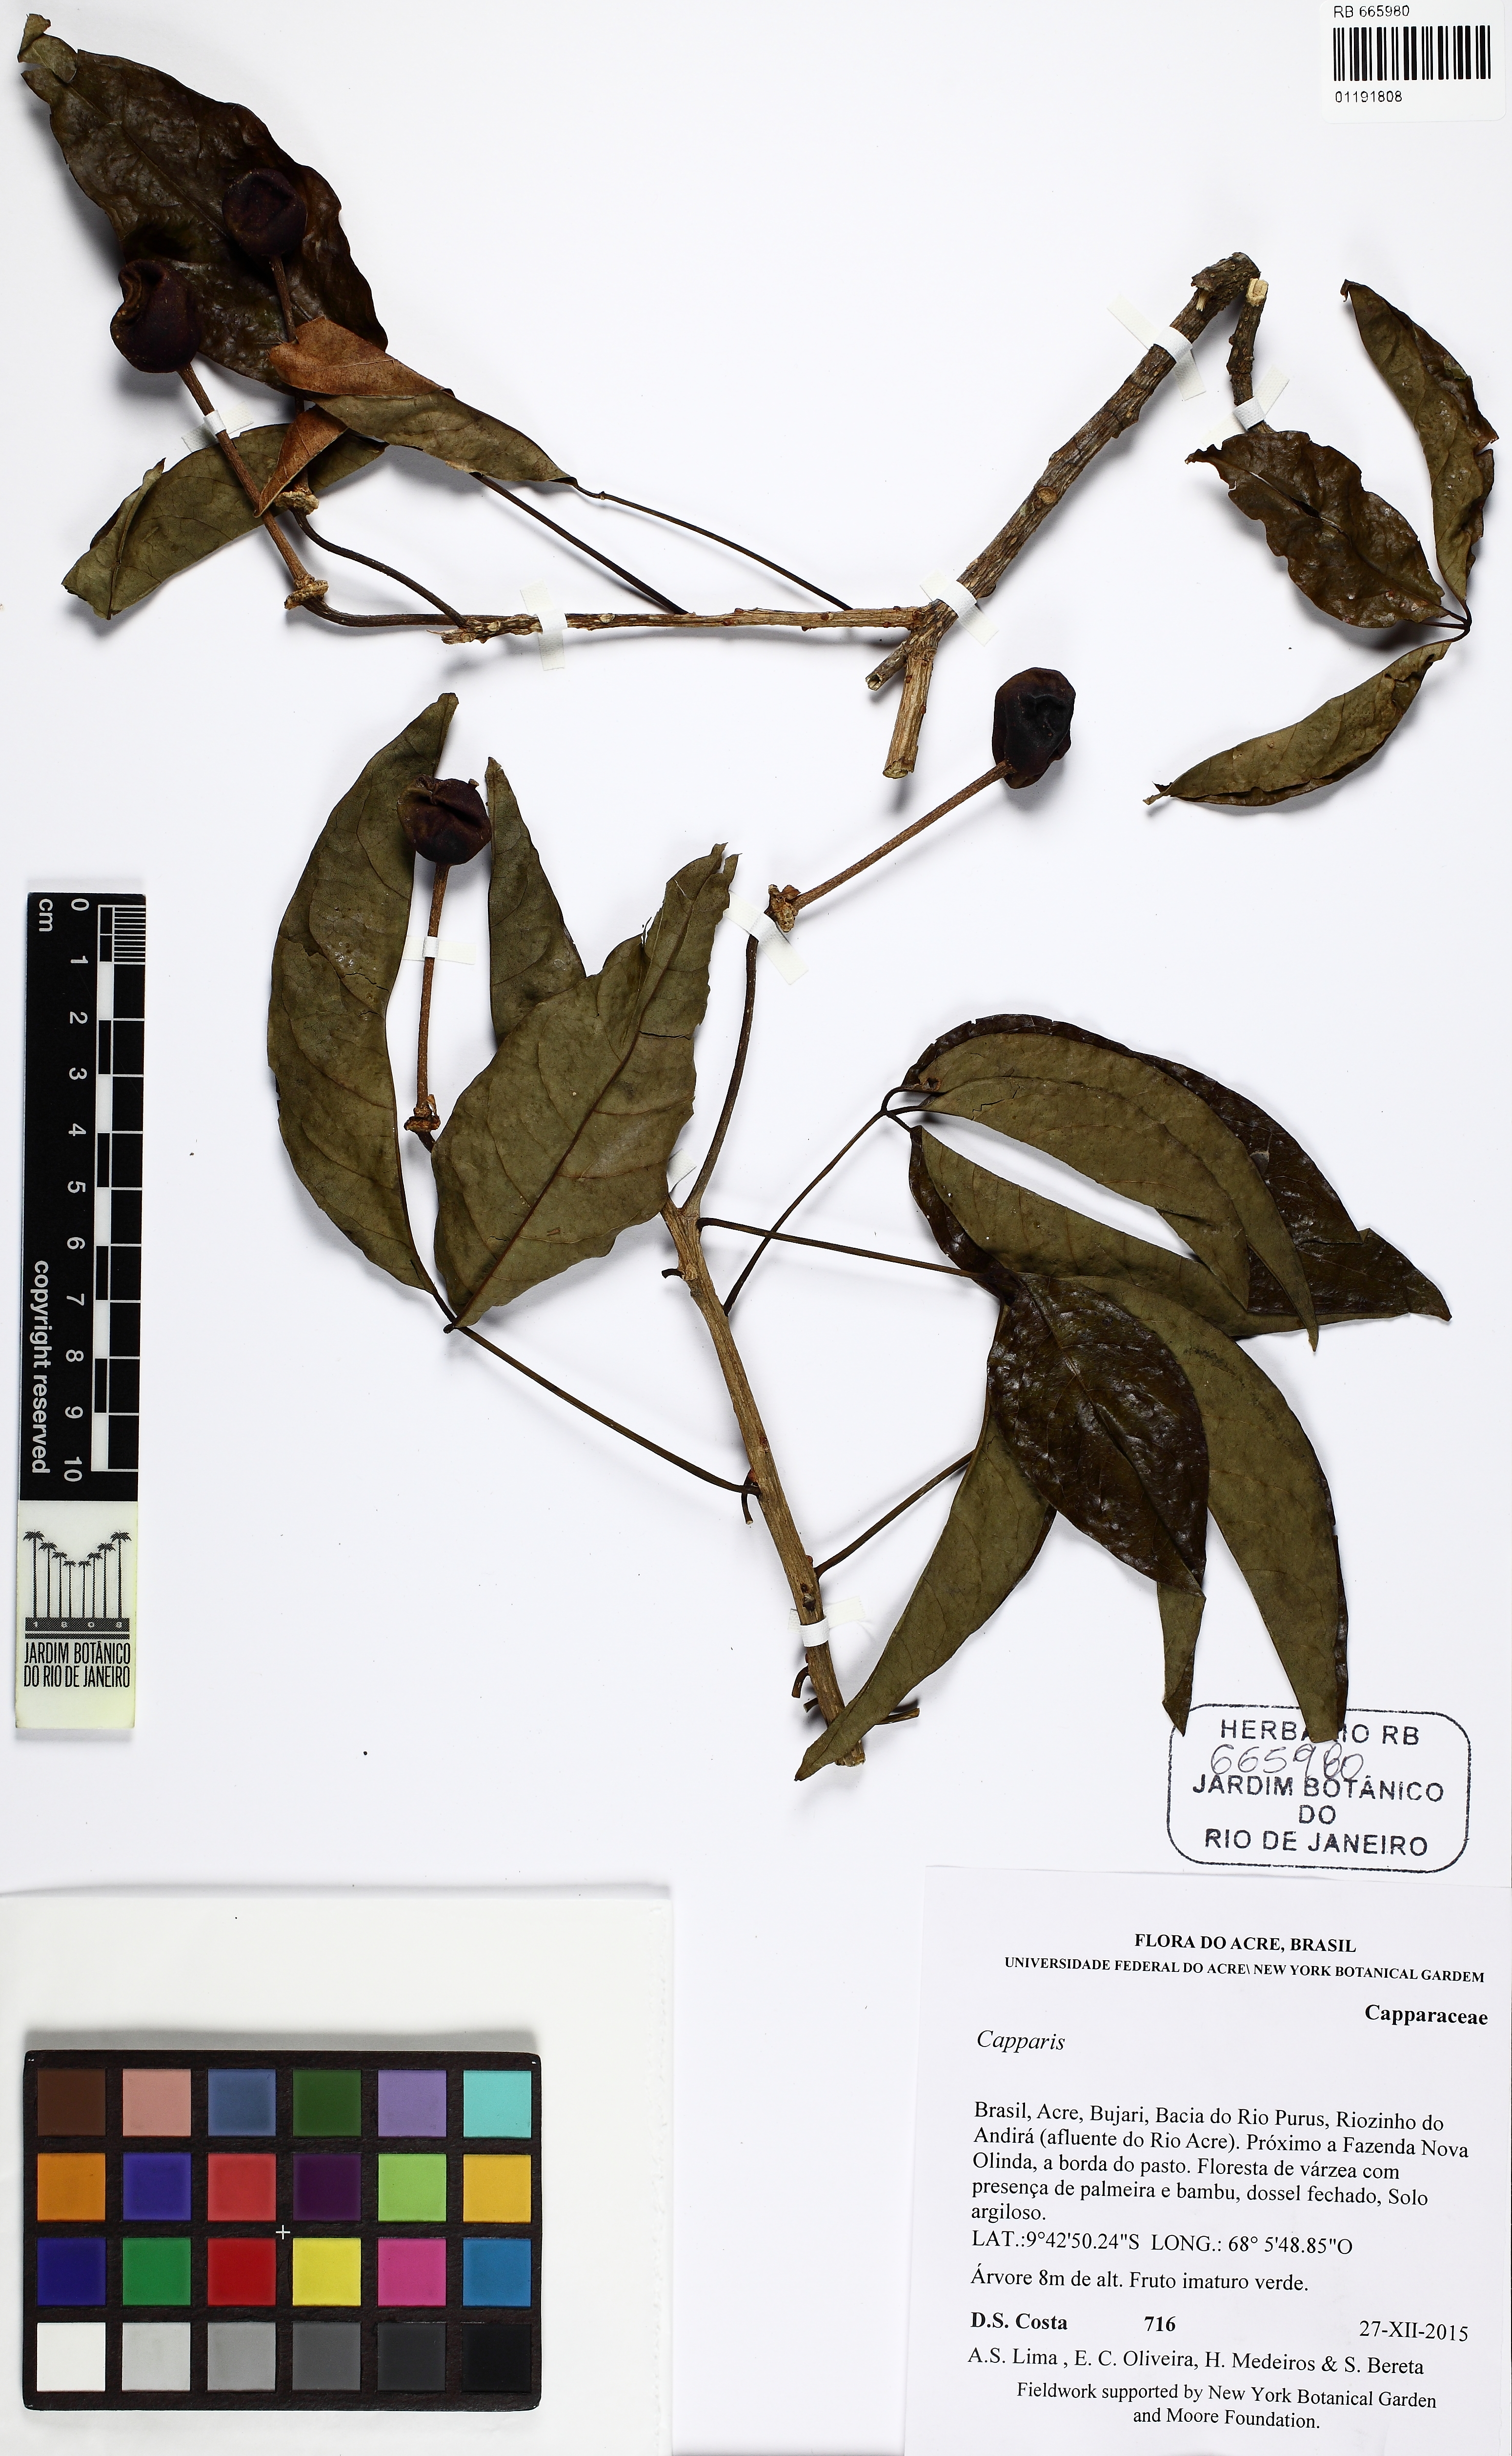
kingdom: Plantae
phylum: Tracheophyta
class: Magnoliopsida
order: Brassicales
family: Capparaceae
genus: Crateva
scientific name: Crateva tapia
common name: Garlic-pear
